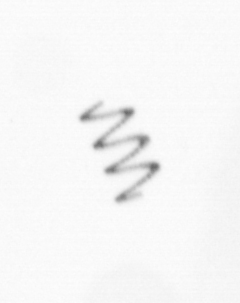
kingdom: Chromista
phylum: Ochrophyta
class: Bacillariophyceae
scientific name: Bacillariophyceae
